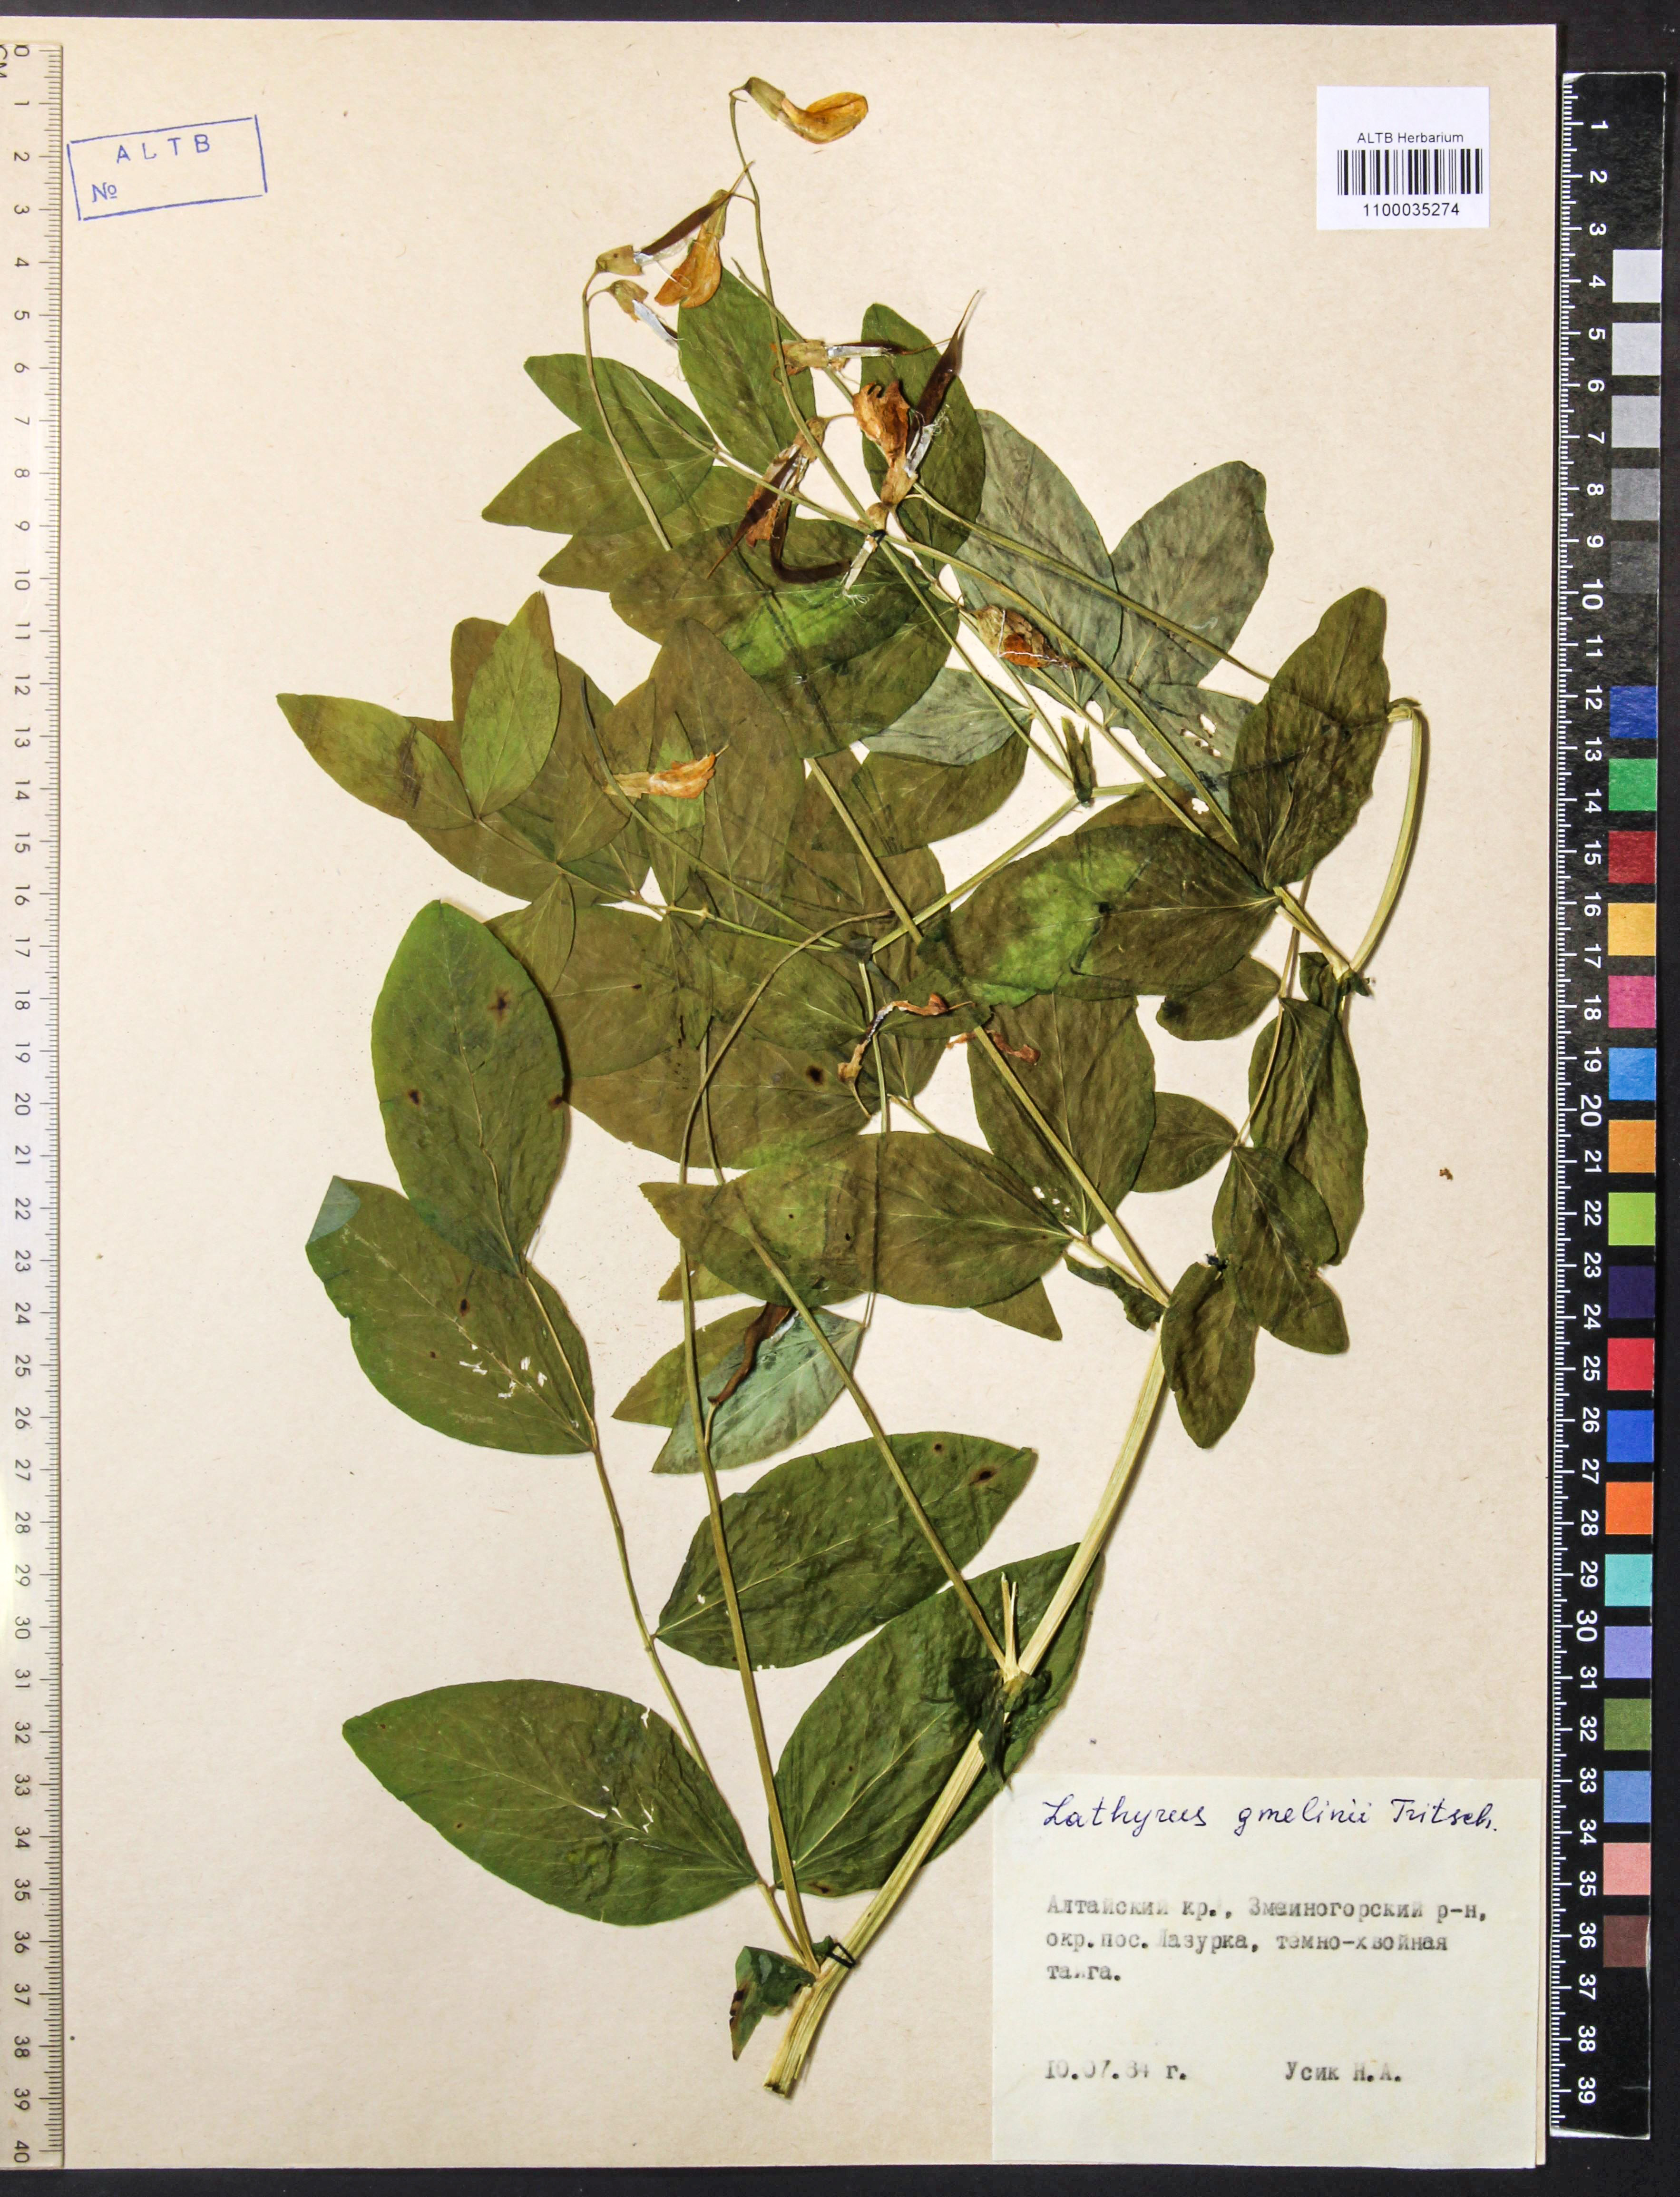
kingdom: Plantae
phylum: Tracheophyta
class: Magnoliopsida
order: Fabales
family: Fabaceae
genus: Lathyrus
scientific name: Lathyrus gmelinii
